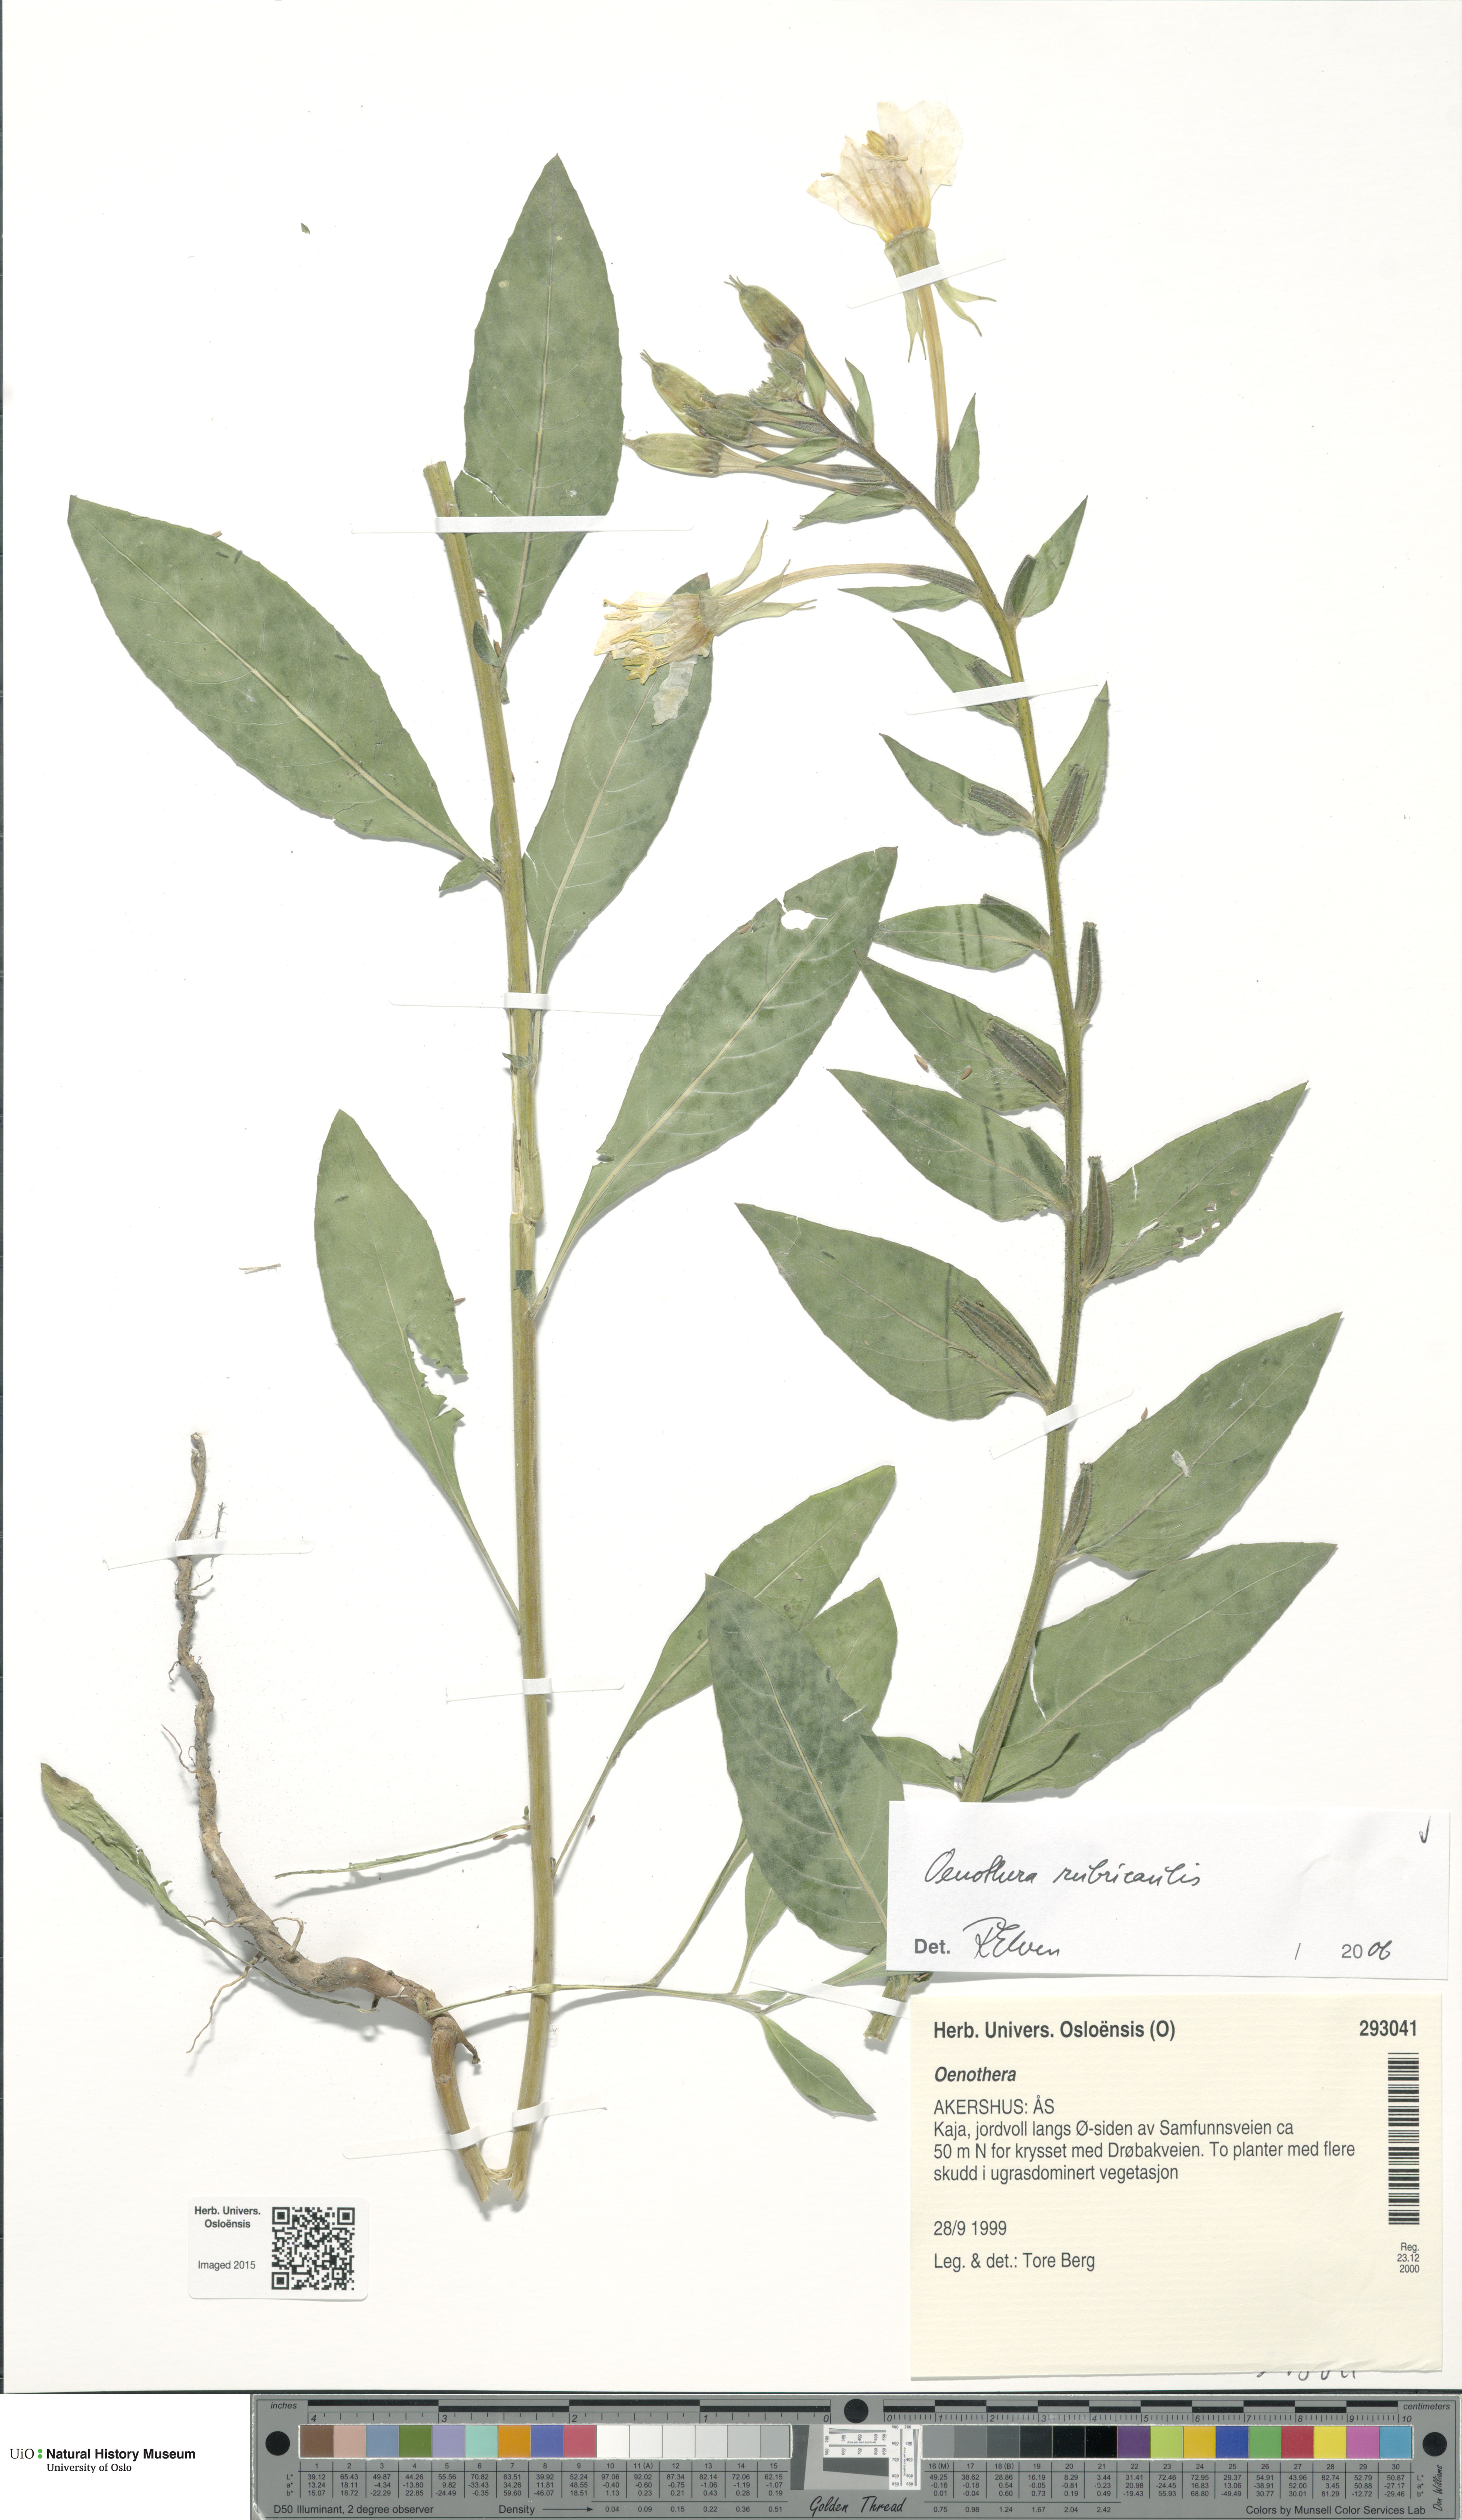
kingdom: Plantae
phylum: Tracheophyta
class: Magnoliopsida
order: Myrtales
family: Onagraceae
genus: Oenothera
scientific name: Oenothera biennis
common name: Common evening-primrose
